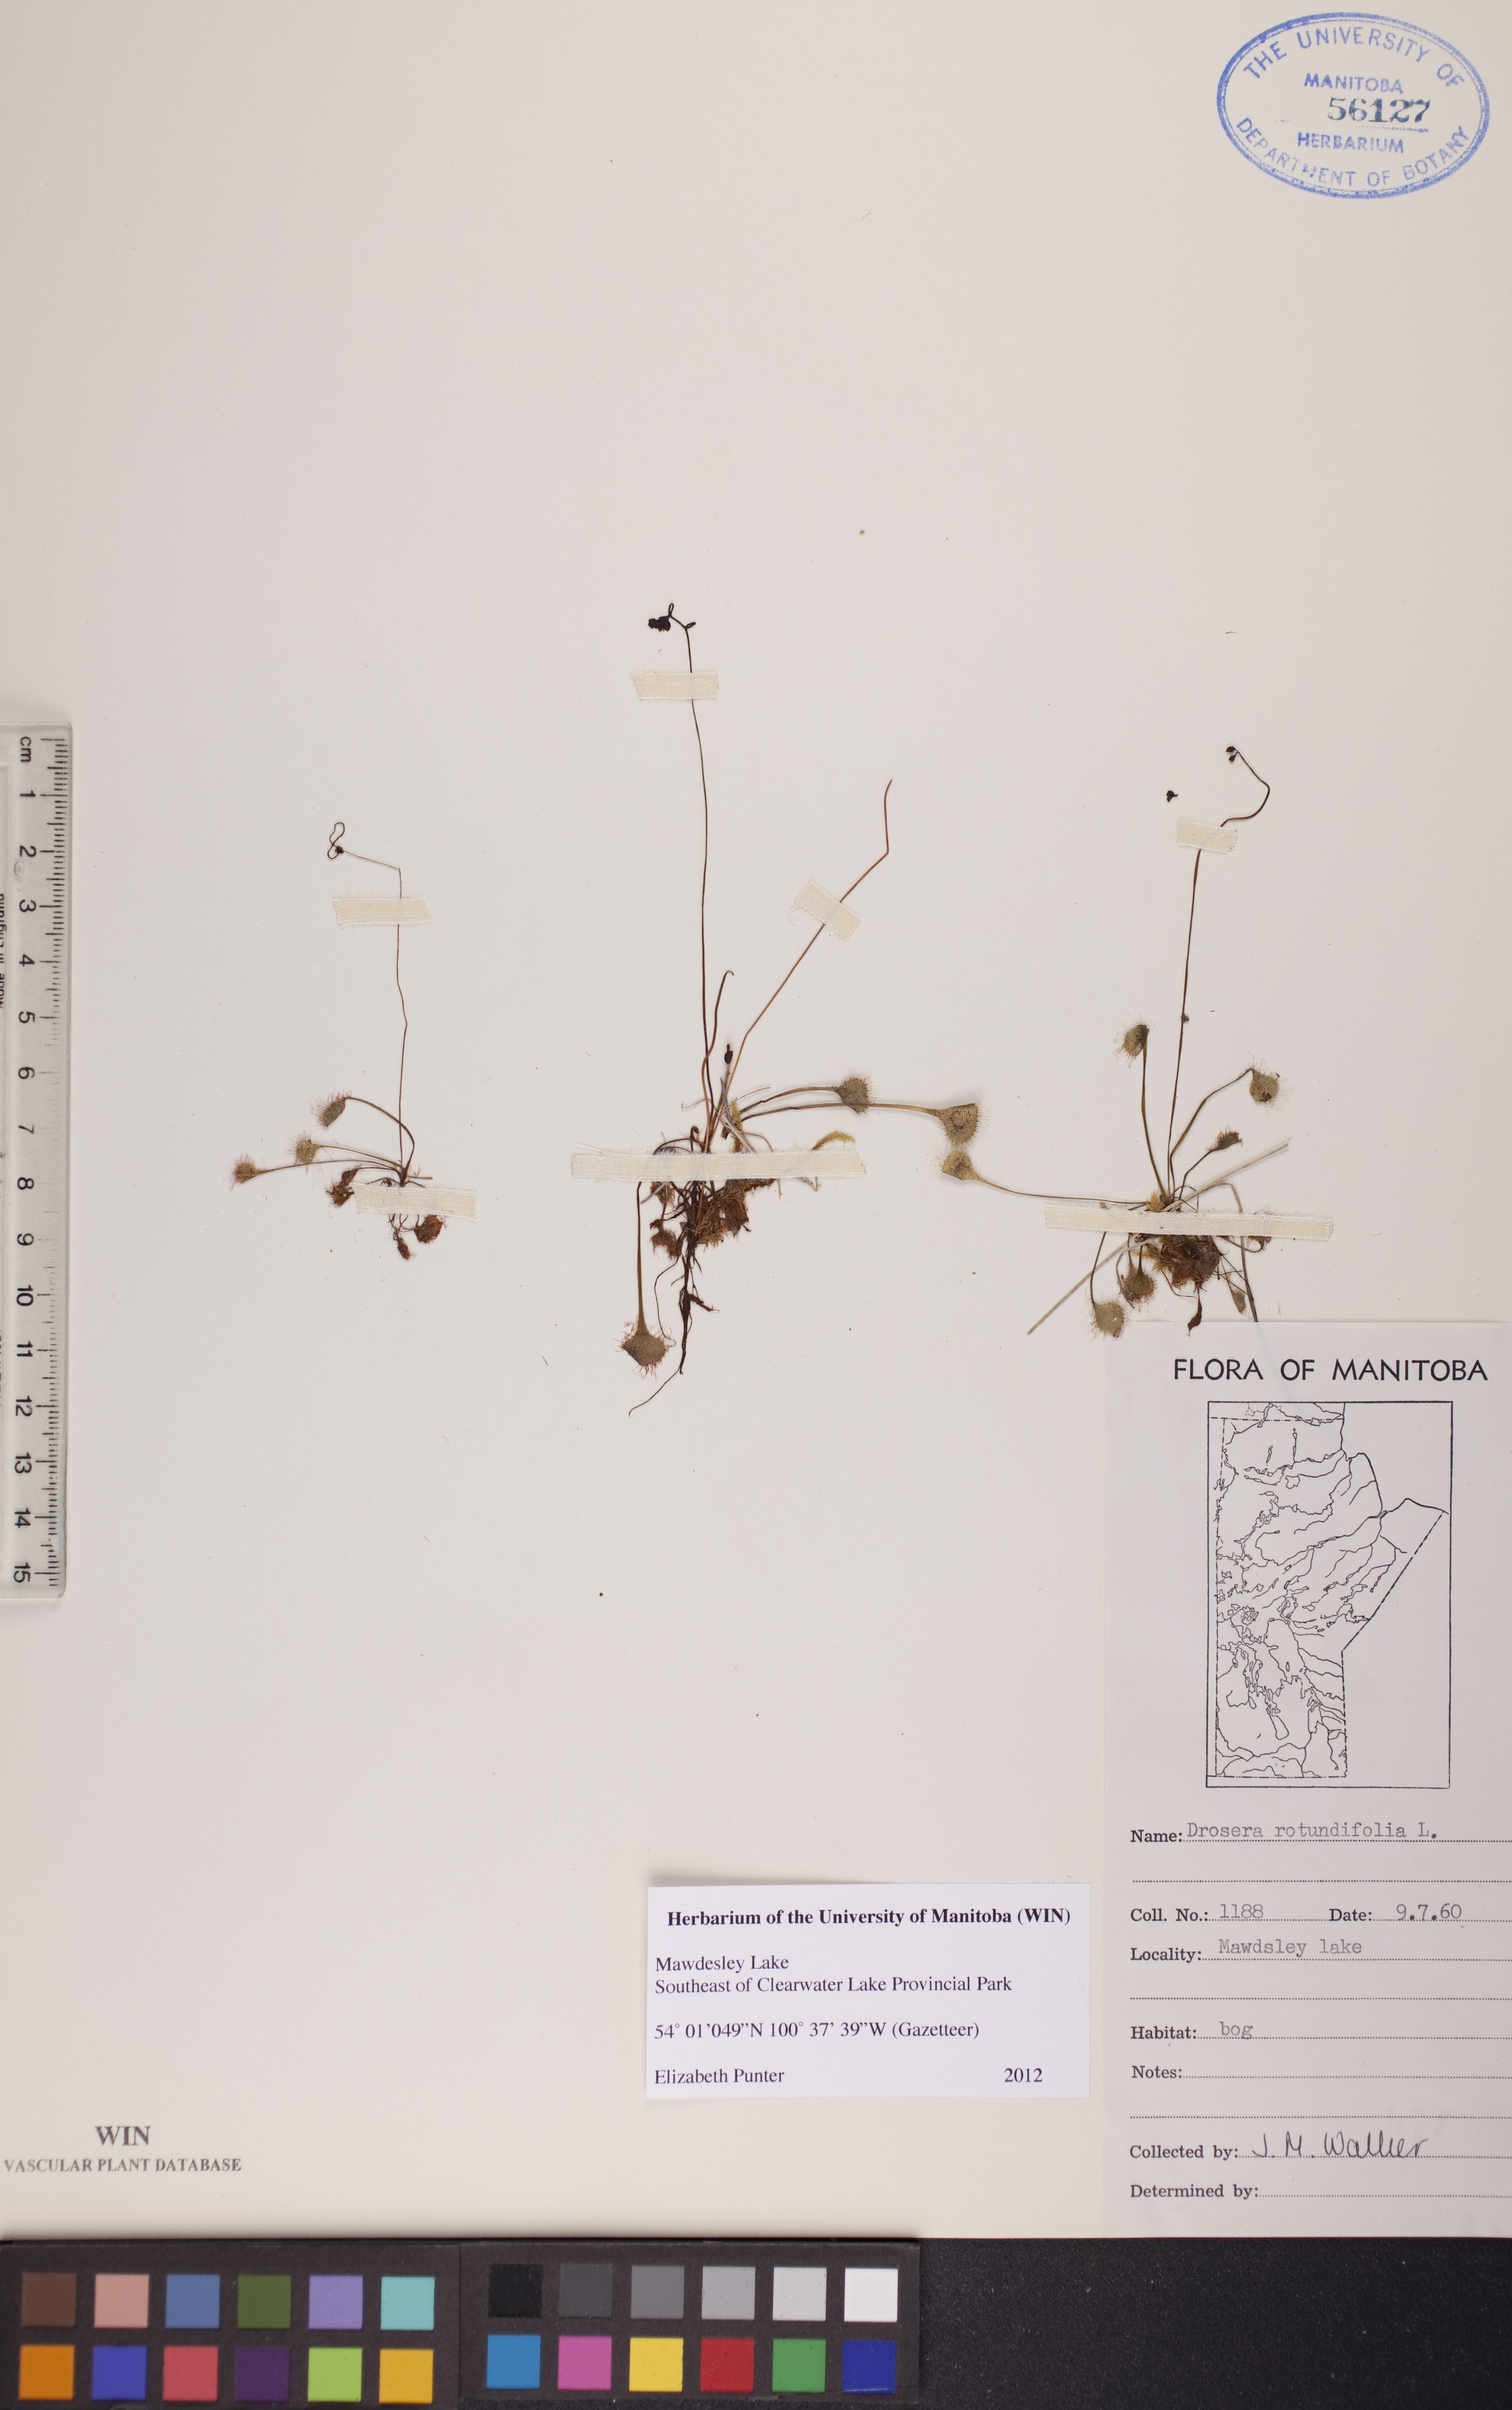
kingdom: Plantae
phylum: Tracheophyta
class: Magnoliopsida
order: Caryophyllales
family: Droseraceae
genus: Drosera
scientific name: Drosera rotundifolia
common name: Round-leaved sundew
